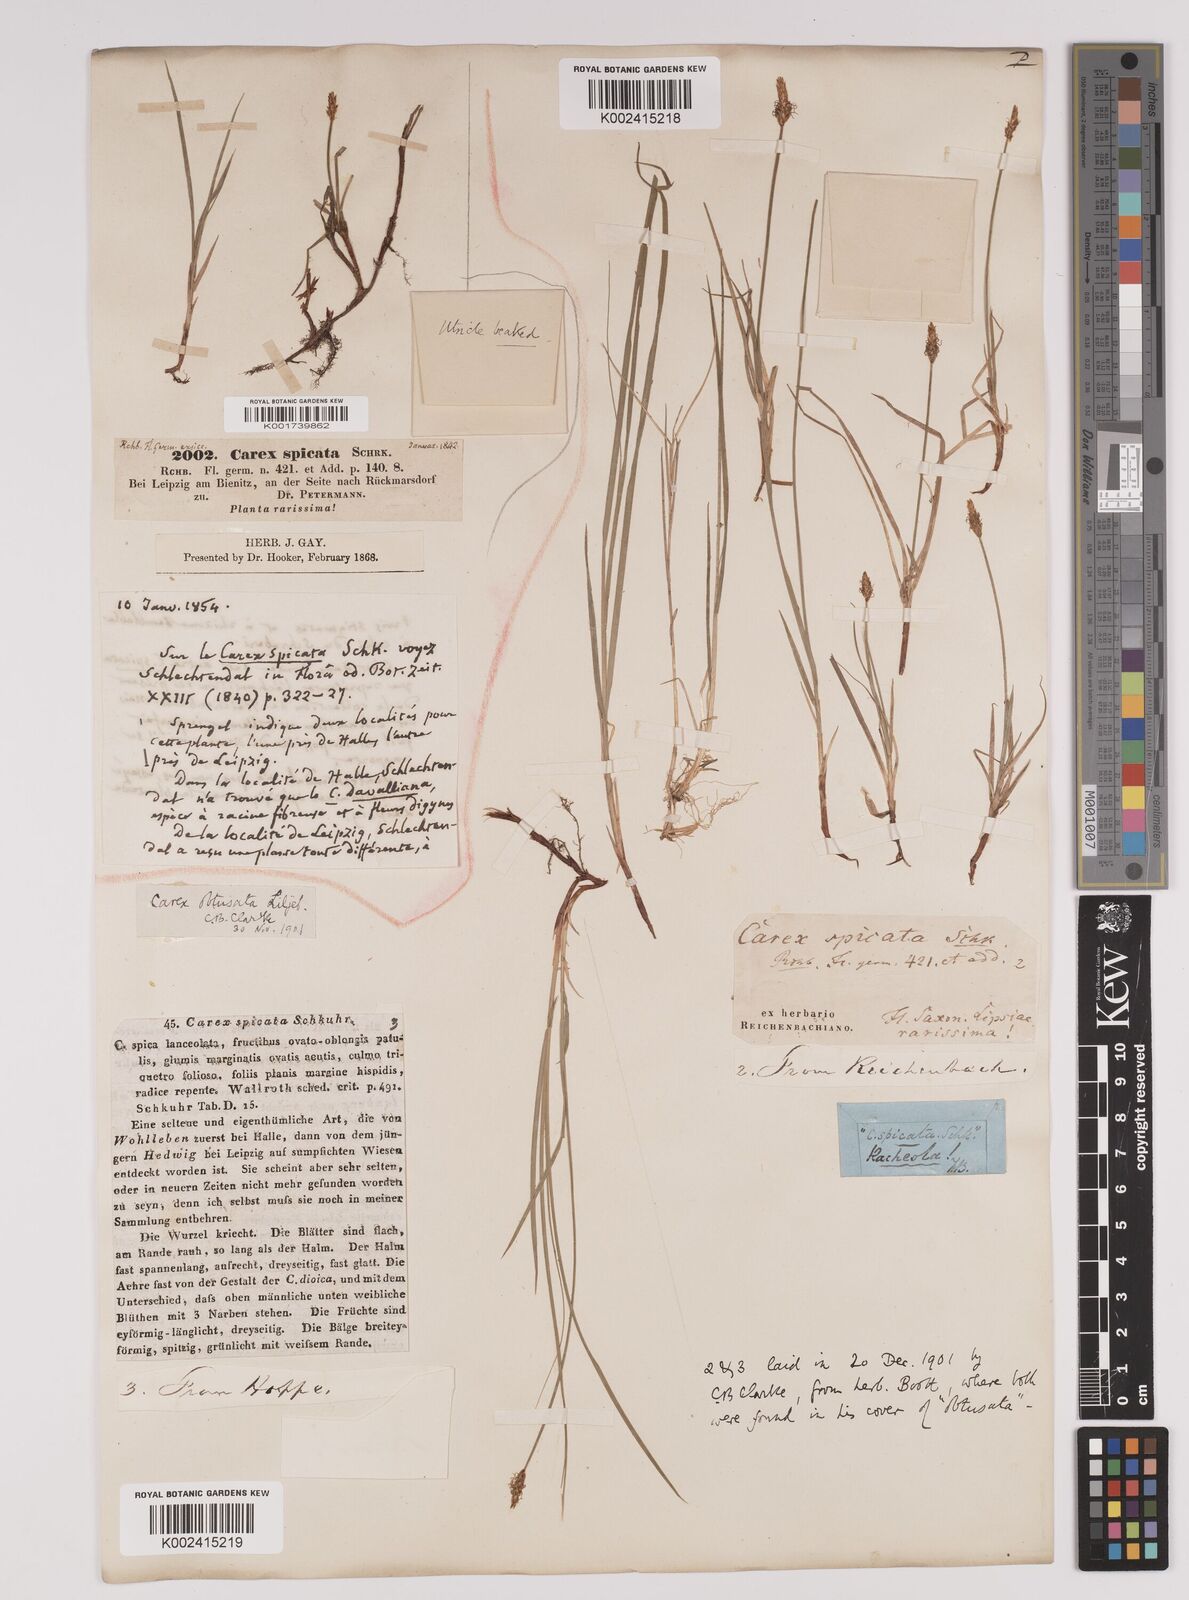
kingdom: Plantae
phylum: Tracheophyta
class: Liliopsida
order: Poales
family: Cyperaceae
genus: Carex
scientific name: Carex obtusata
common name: Blunt sedge
